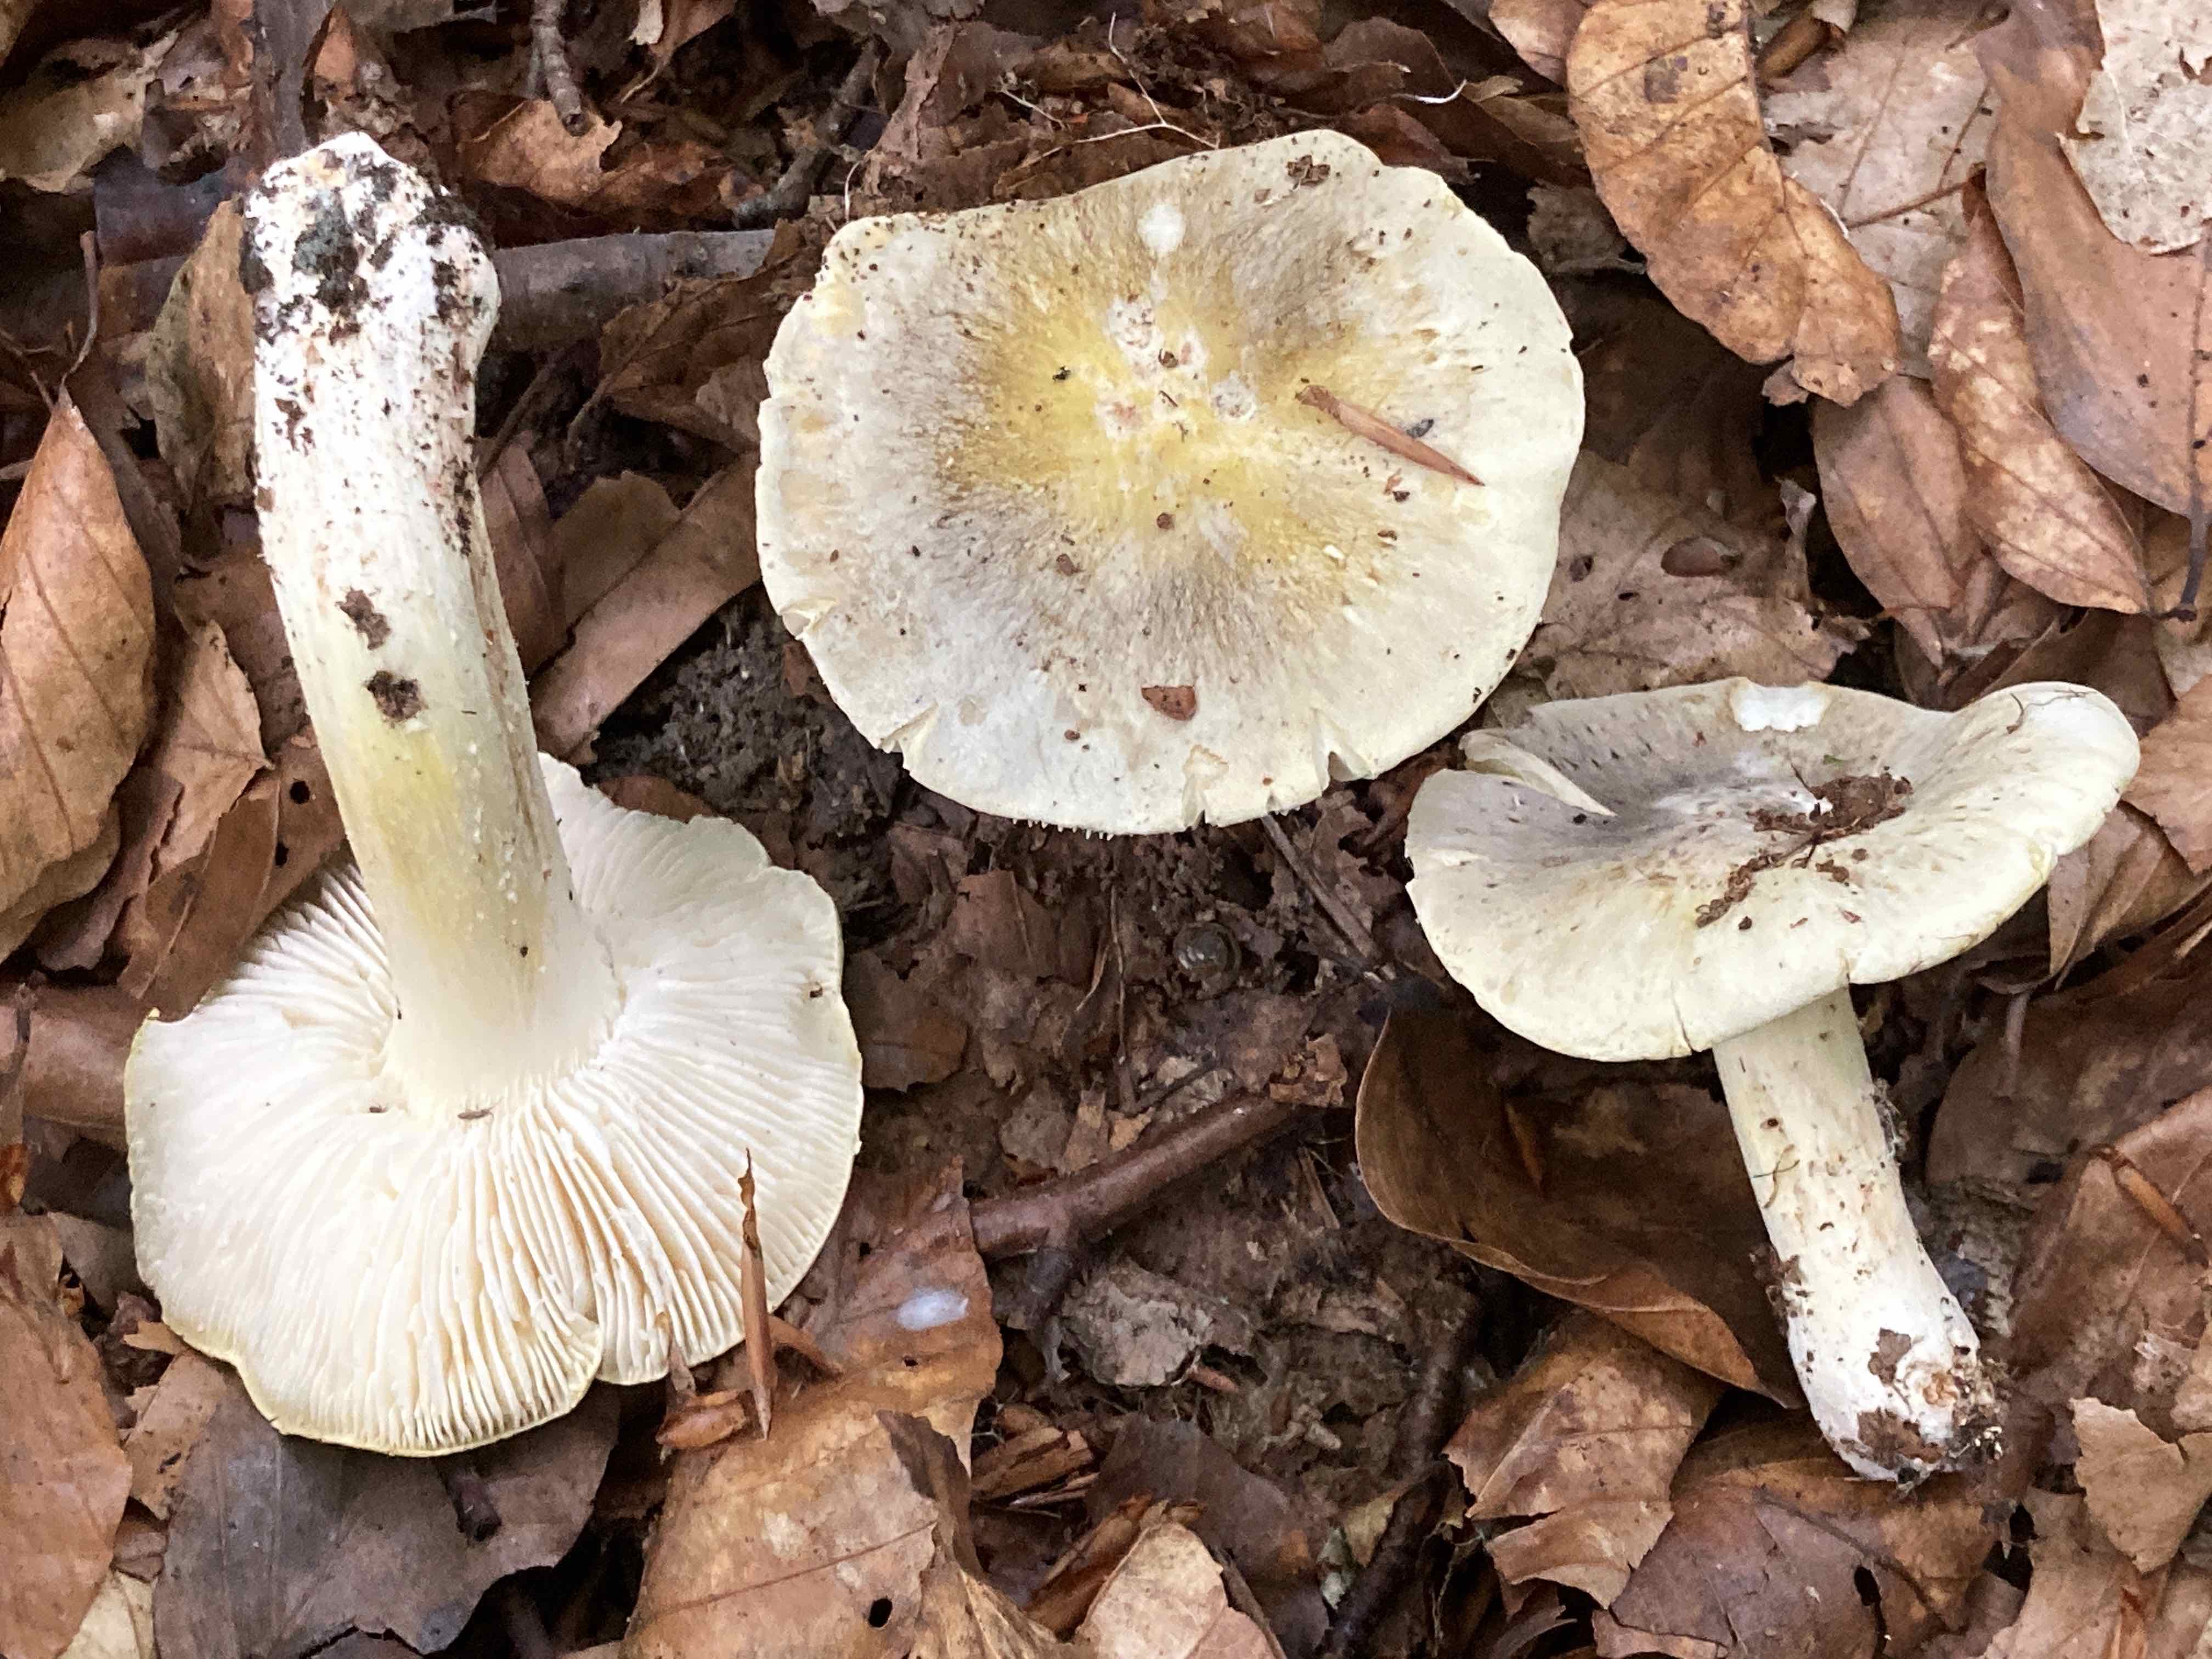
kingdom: Fungi
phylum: Basidiomycota
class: Agaricomycetes
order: Agaricales
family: Tricholomataceae
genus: Tricholoma
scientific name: Tricholoma sejunctum
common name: grøngul ridderhat
